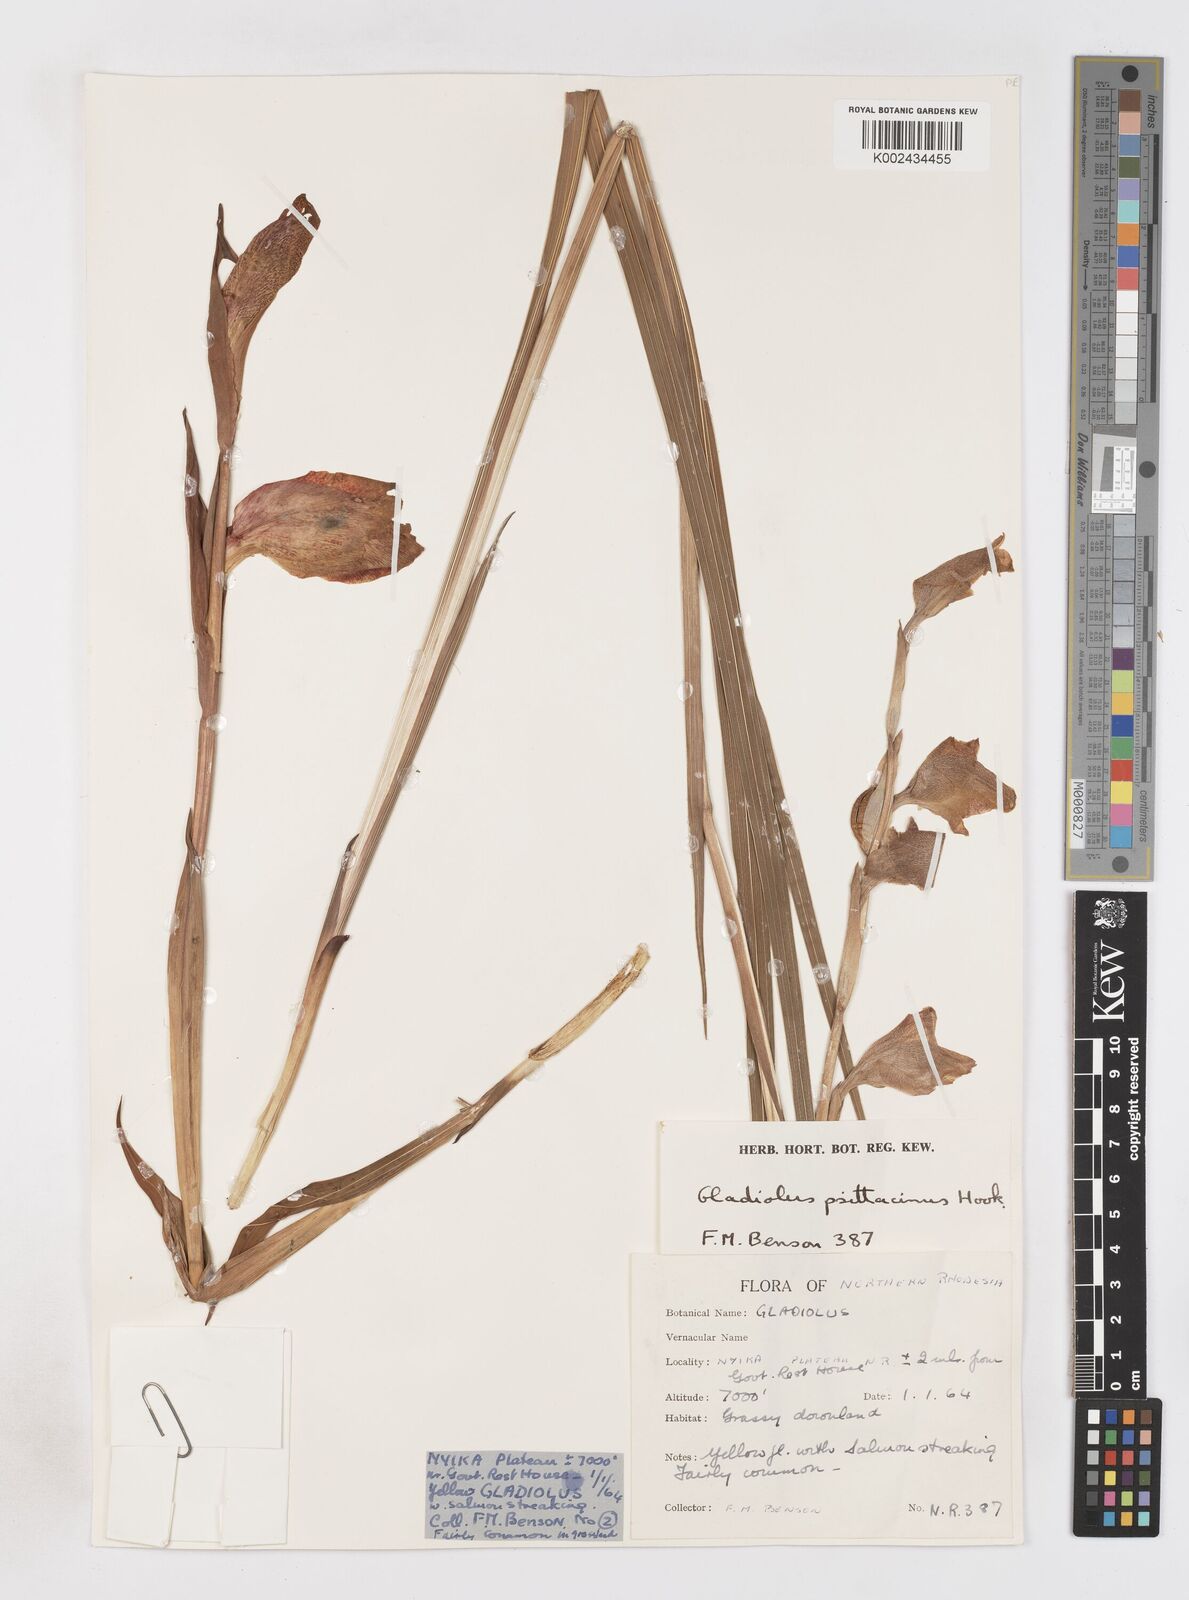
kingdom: Plantae
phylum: Tracheophyta
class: Liliopsida
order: Asparagales
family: Iridaceae
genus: Gladiolus
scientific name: Gladiolus dalenii
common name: Cornflag
